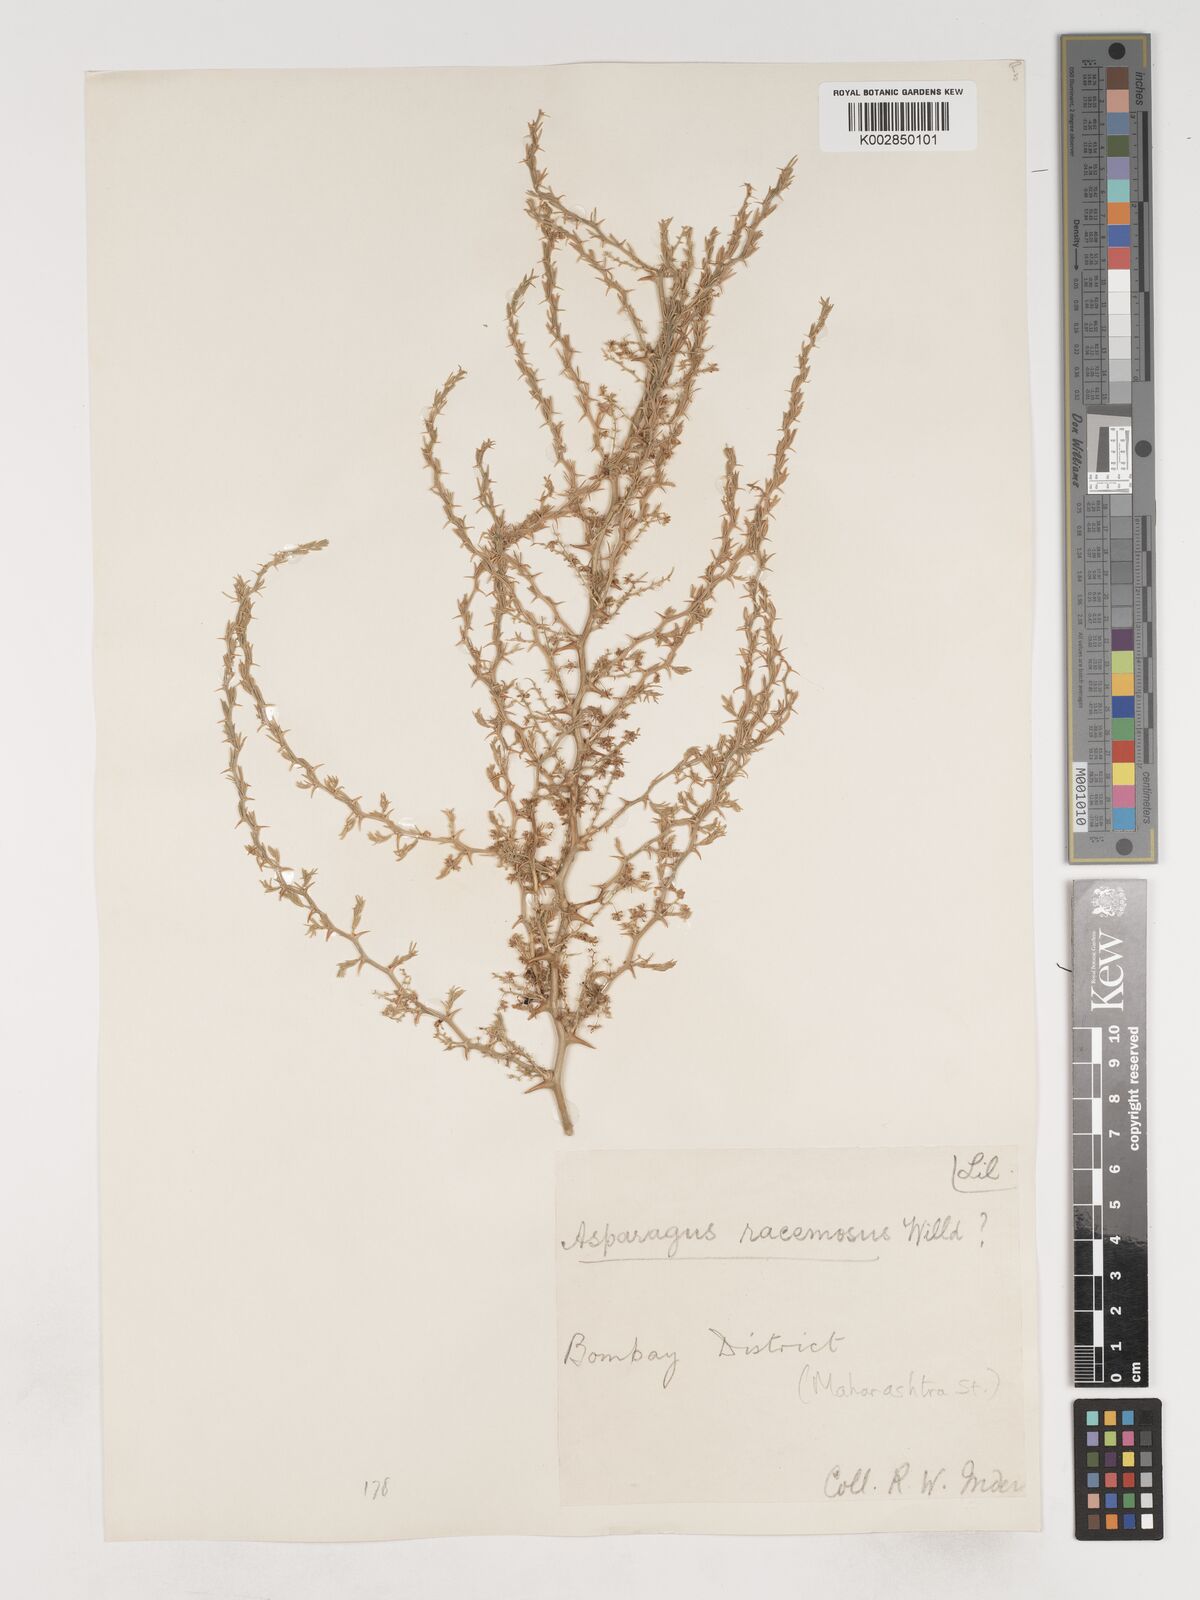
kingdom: Plantae
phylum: Tracheophyta
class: Liliopsida
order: Asparagales
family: Asparagaceae
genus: Asparagus
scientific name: Asparagus racemosus
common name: Asparagus-fern
